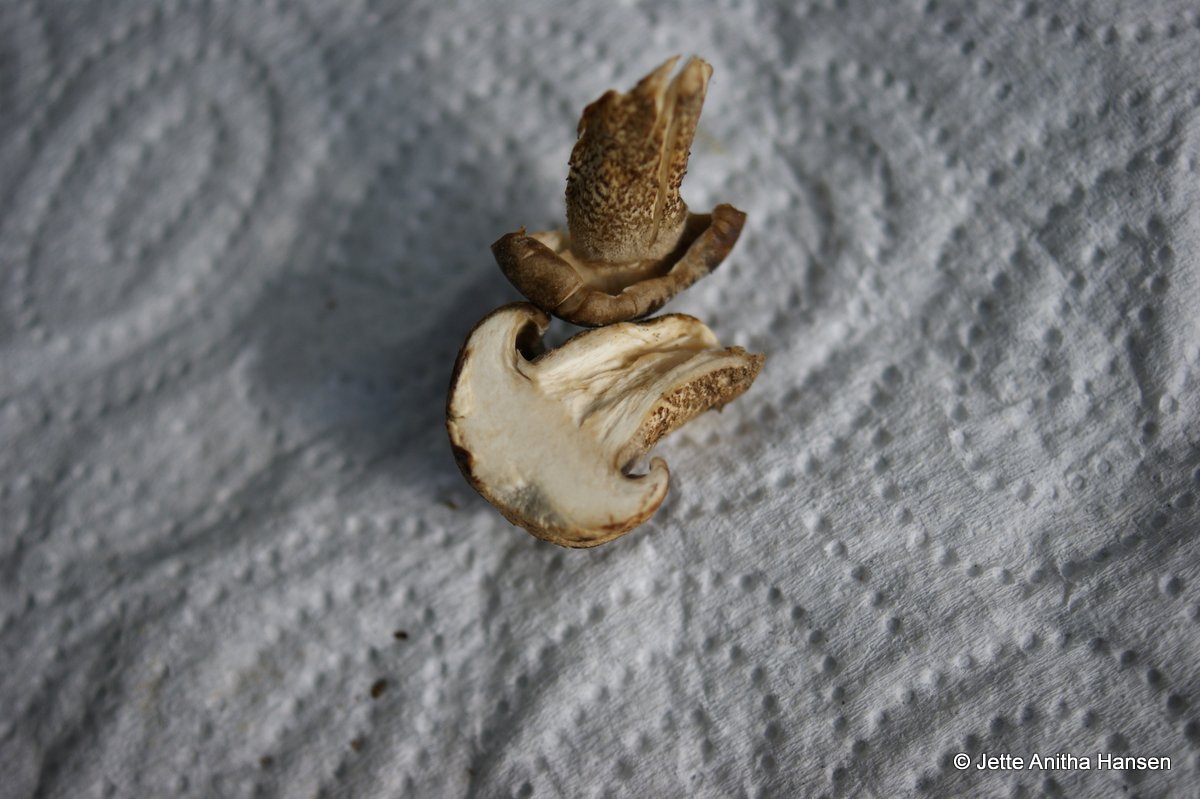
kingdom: Fungi
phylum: Basidiomycota
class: Agaricomycetes
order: Polyporales
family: Polyporaceae
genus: Lentinus
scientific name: Lentinus substrictus
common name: forårs-stilkporesvamp
